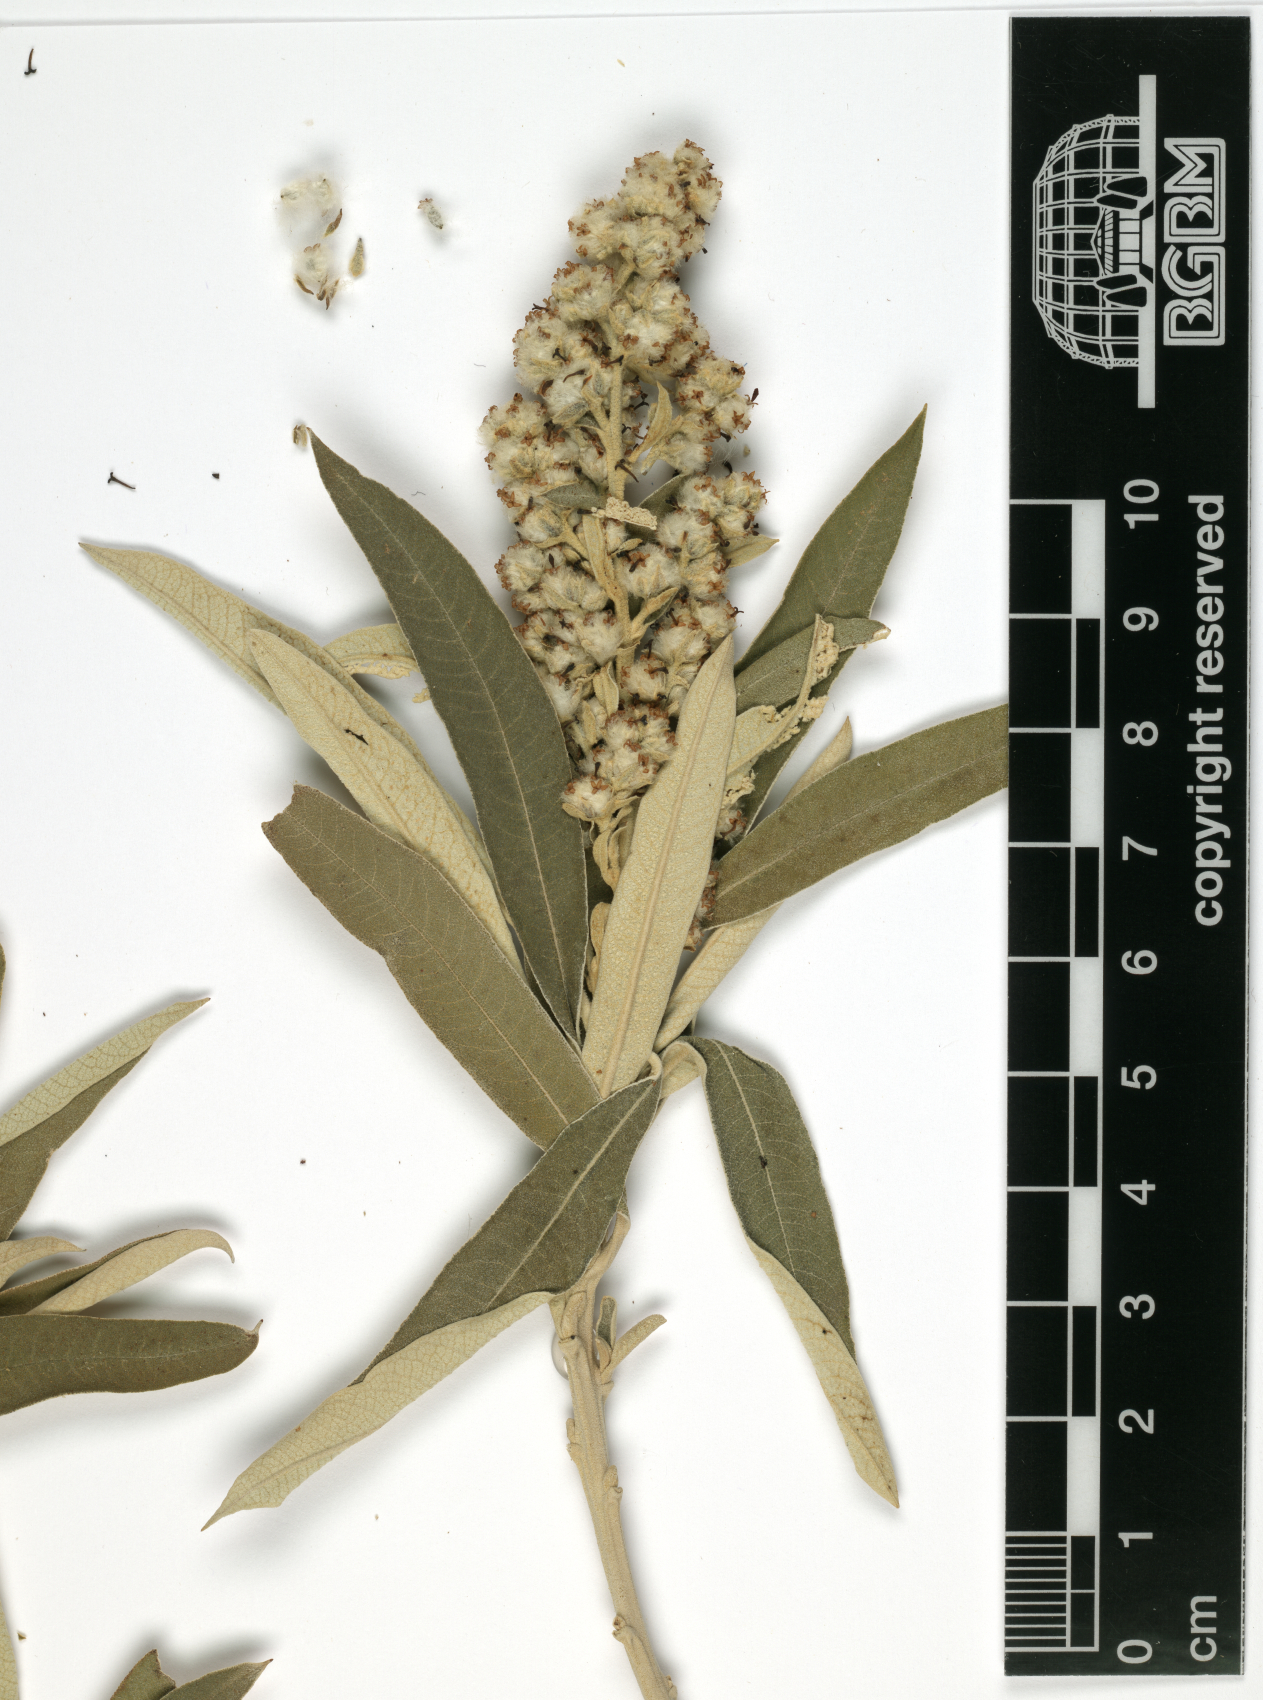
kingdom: Plantae
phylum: Tracheophyta
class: Magnoliopsida
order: Asterales
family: Asteraceae
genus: Tarchonanthus
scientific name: Tarchonanthus camphoratus
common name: Camphorwood
